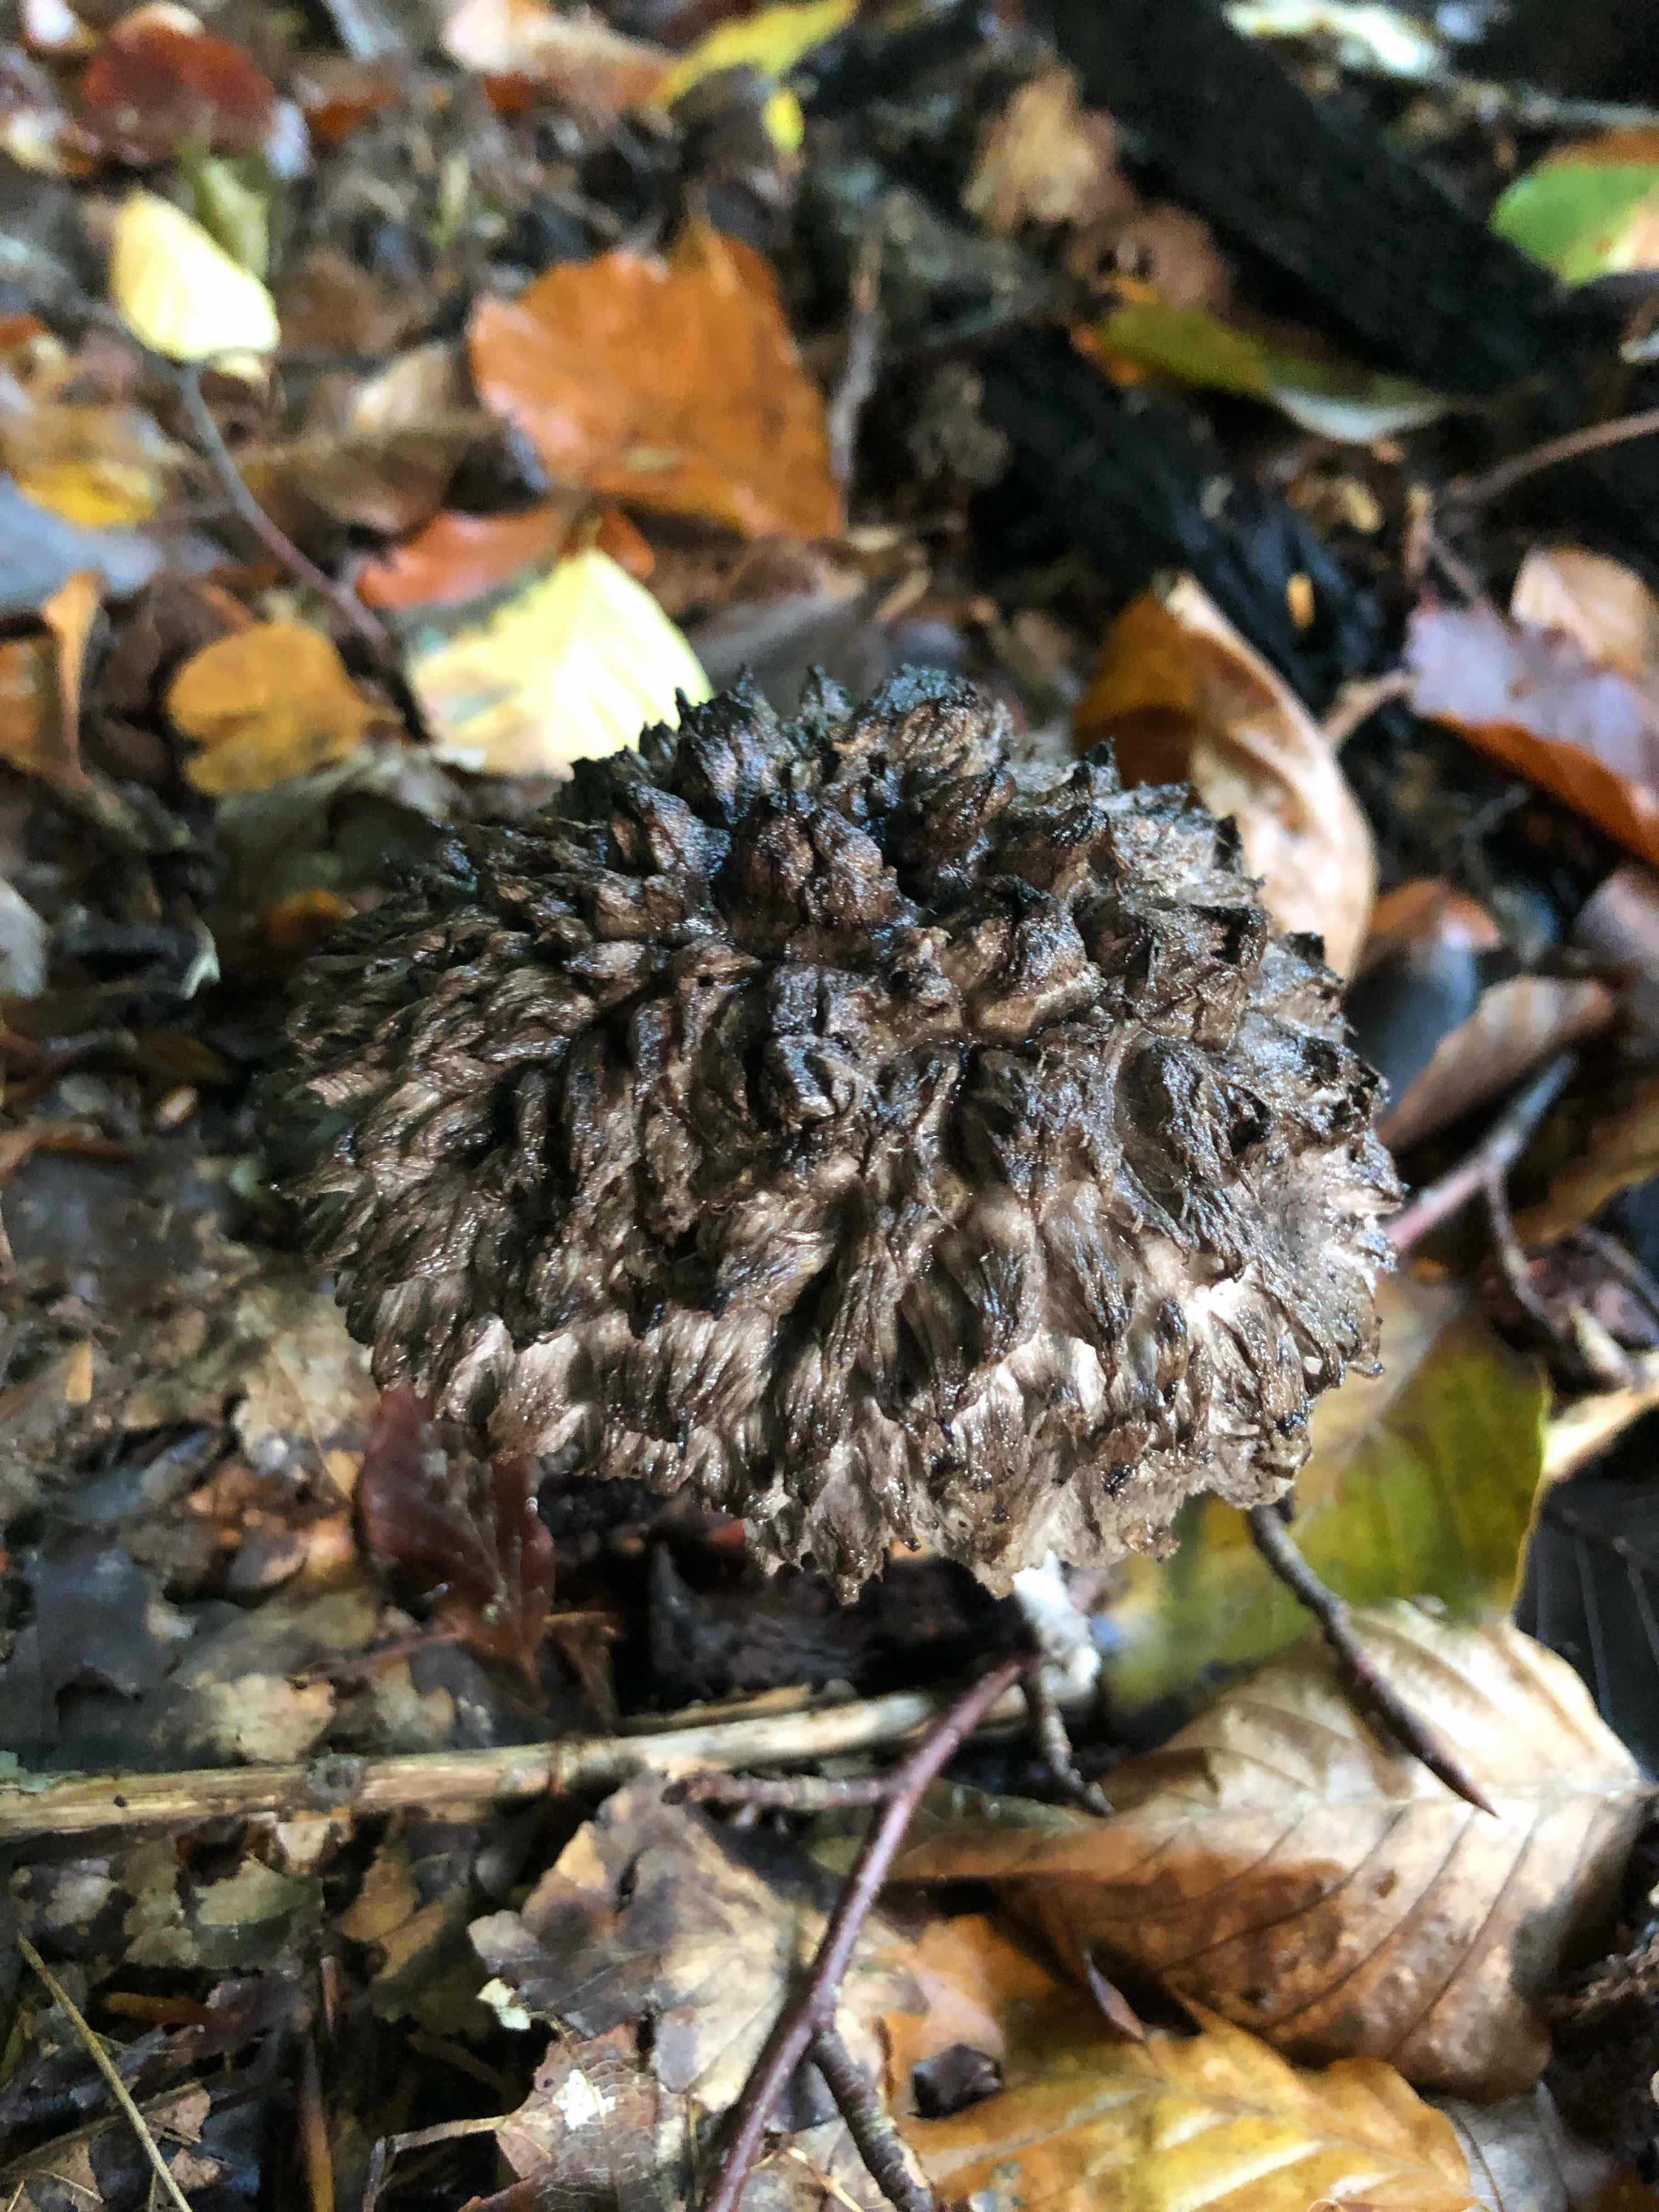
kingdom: Fungi
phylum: Basidiomycota
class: Agaricomycetes
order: Boletales
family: Boletaceae
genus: Strobilomyces
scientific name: Strobilomyces strobilaceus
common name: koglerørhat
